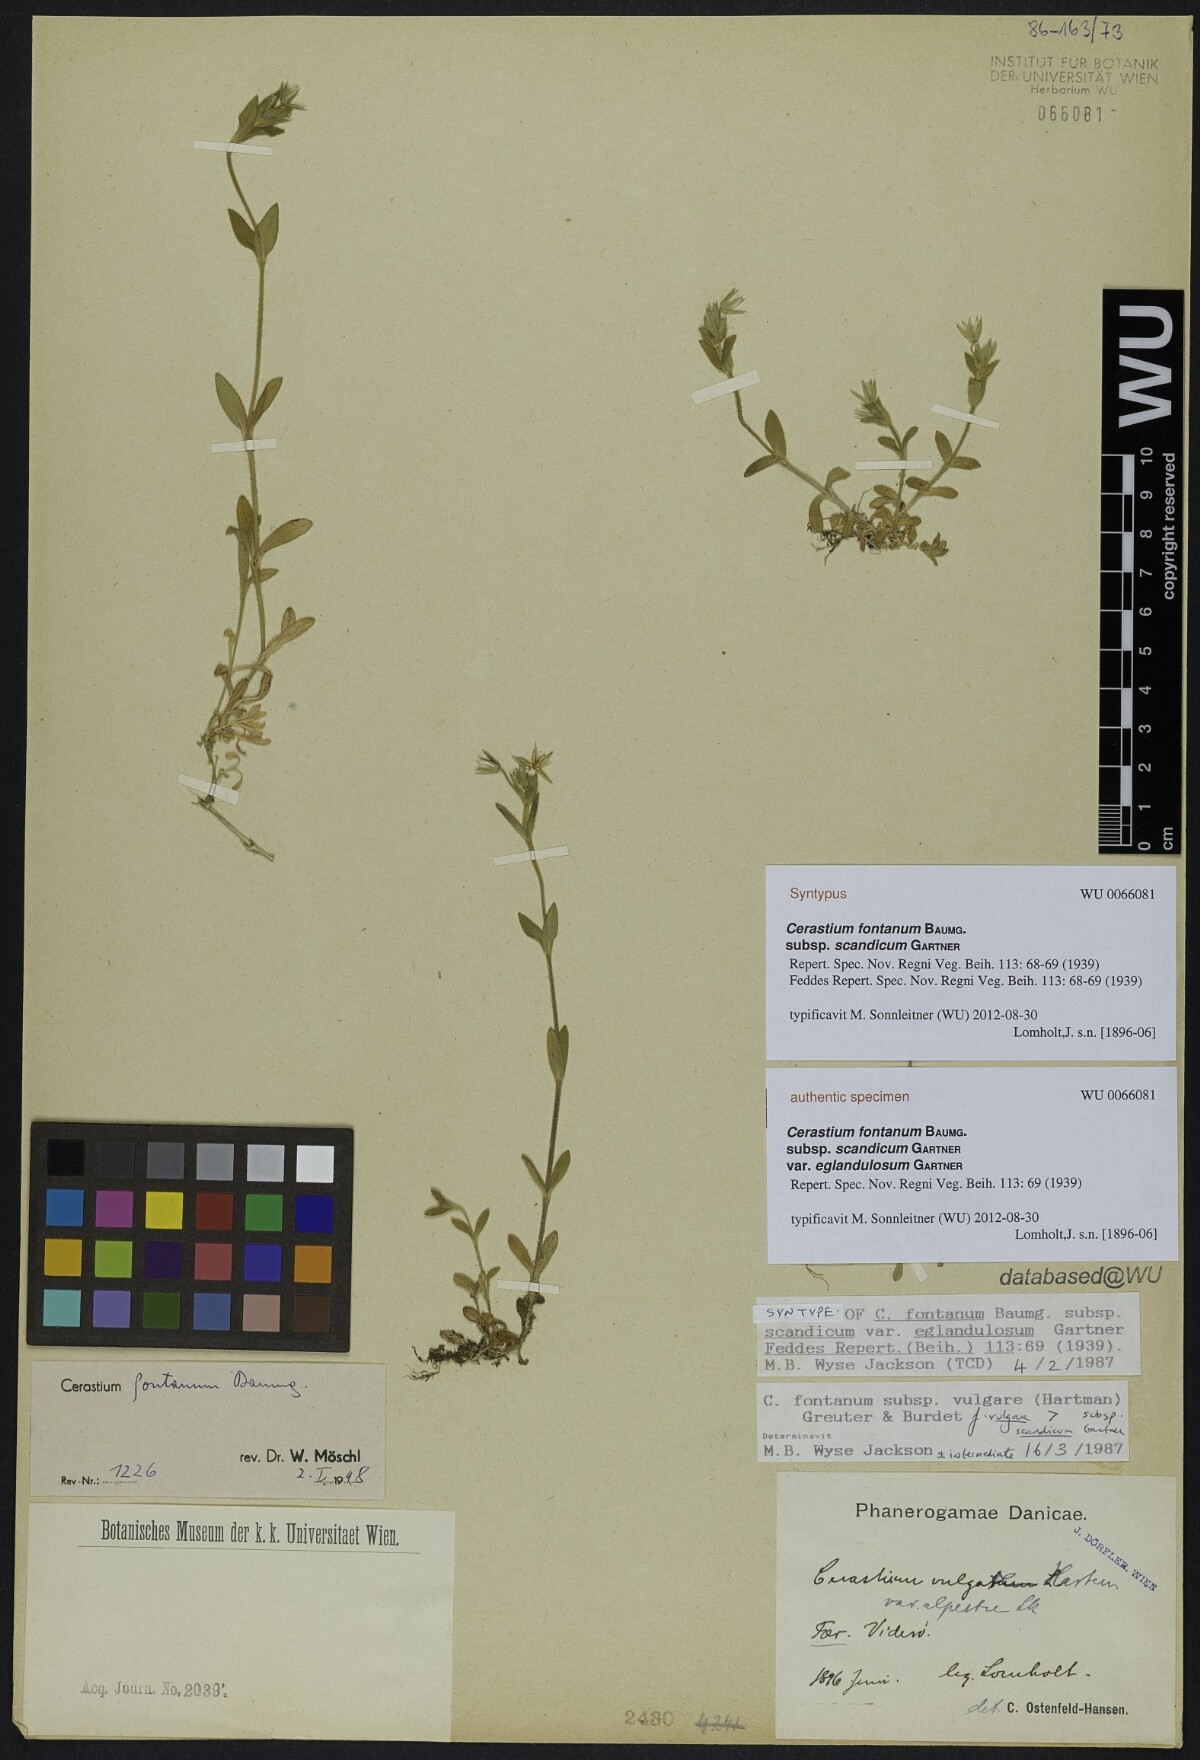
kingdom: Plantae
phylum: Tracheophyta
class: Magnoliopsida
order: Caryophyllales
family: Caryophyllaceae
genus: Cerastium
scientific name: Cerastium holosteoides
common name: Big chickweed
